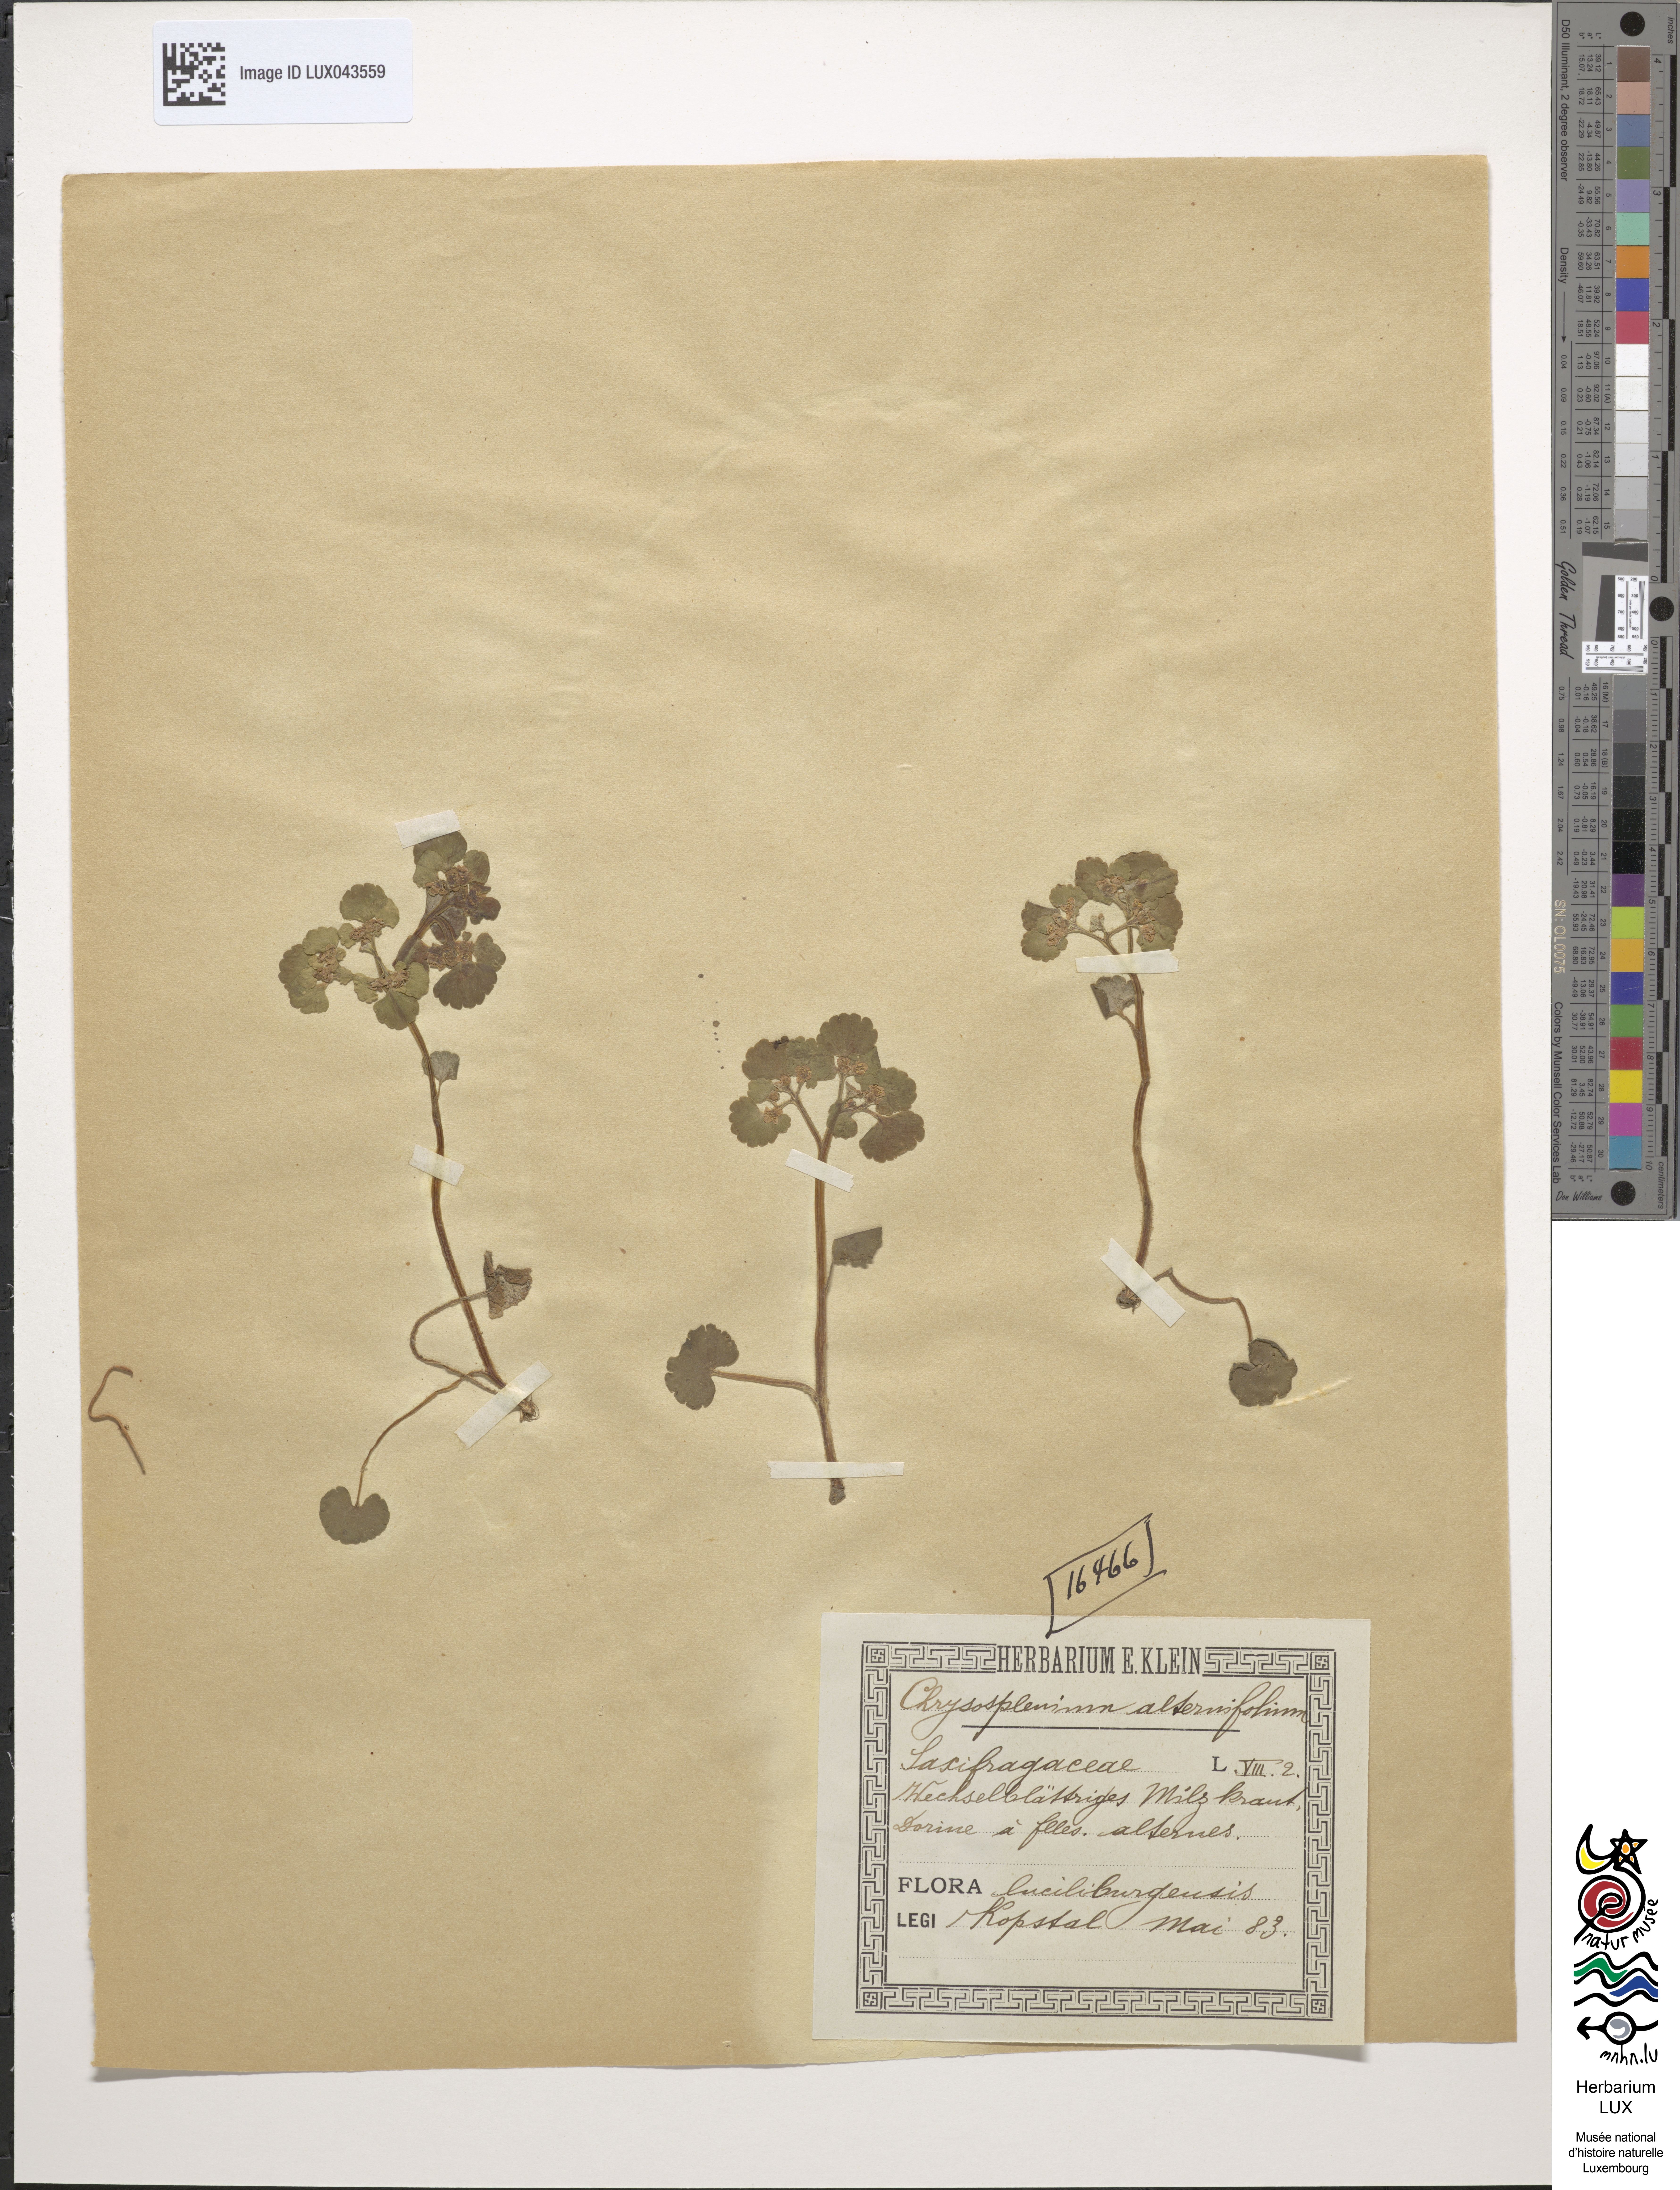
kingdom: Plantae
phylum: Tracheophyta
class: Magnoliopsida
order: Saxifragales
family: Saxifragaceae
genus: Chrysosplenium
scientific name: Chrysosplenium alternifolium
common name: Alternate-leaved golden-saxifrage
